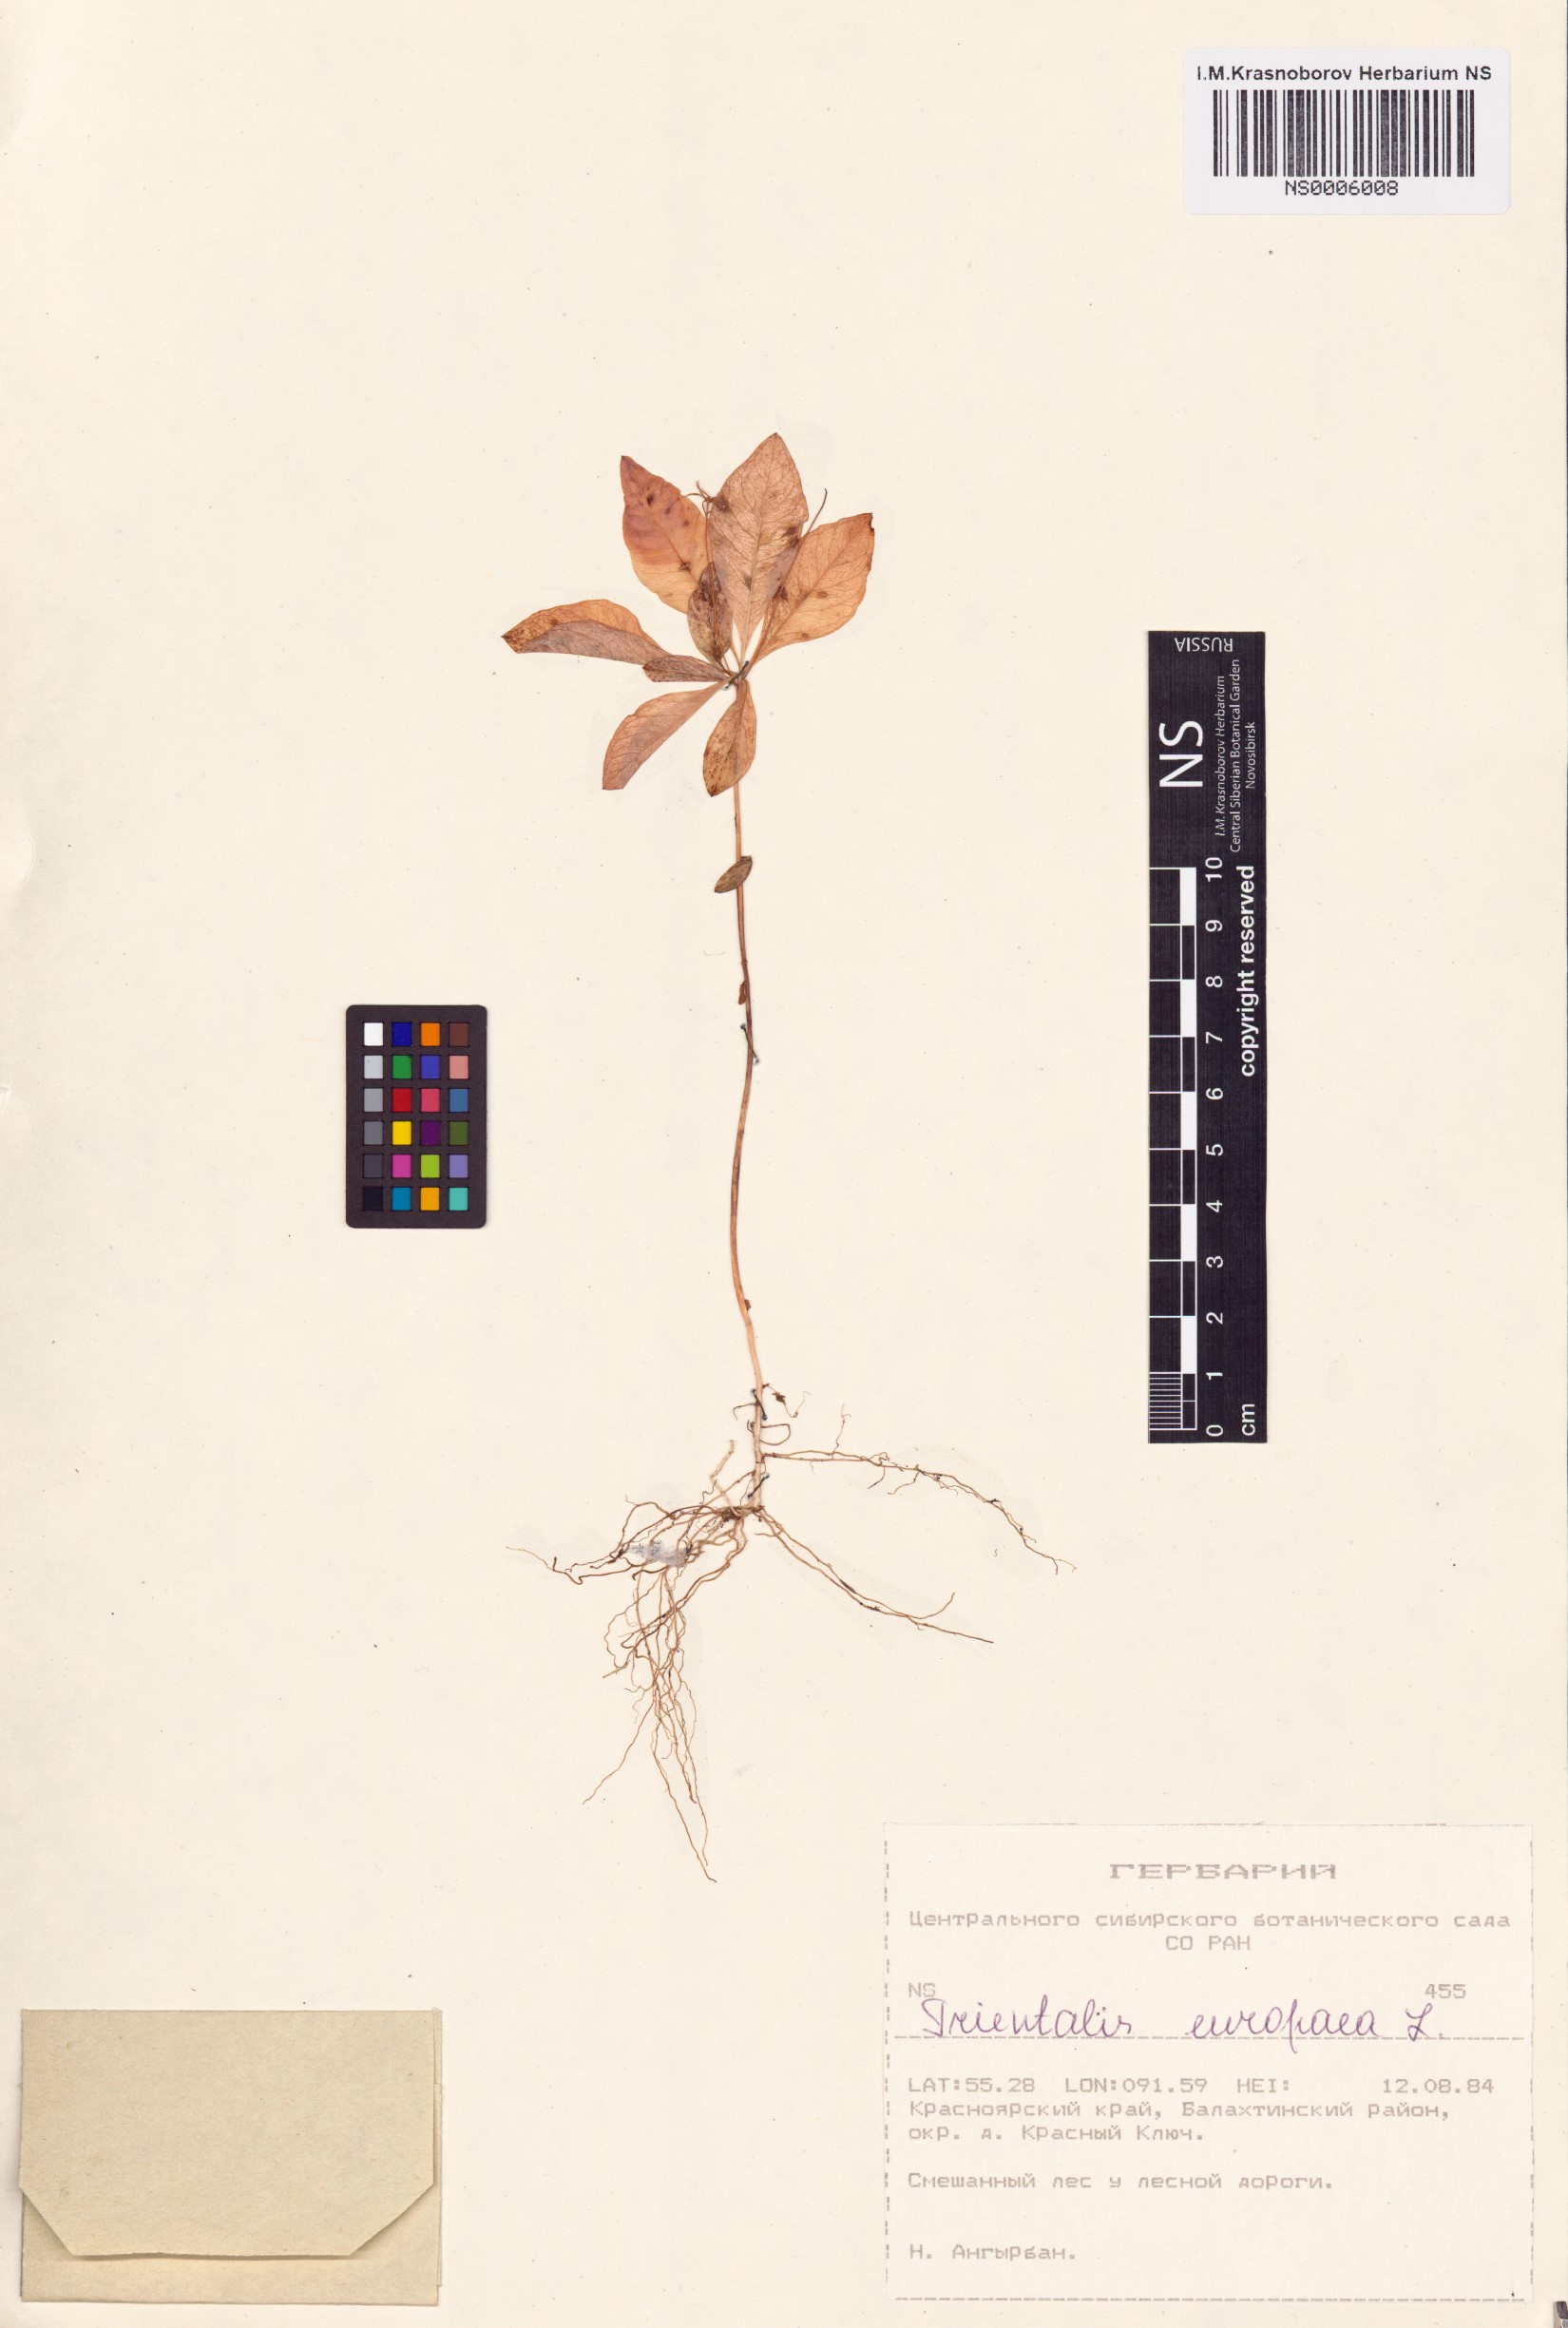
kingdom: Plantae
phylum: Tracheophyta
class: Magnoliopsida
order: Ericales
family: Primulaceae
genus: Lysimachia
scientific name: Lysimachia europaea
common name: Arctic starflower
